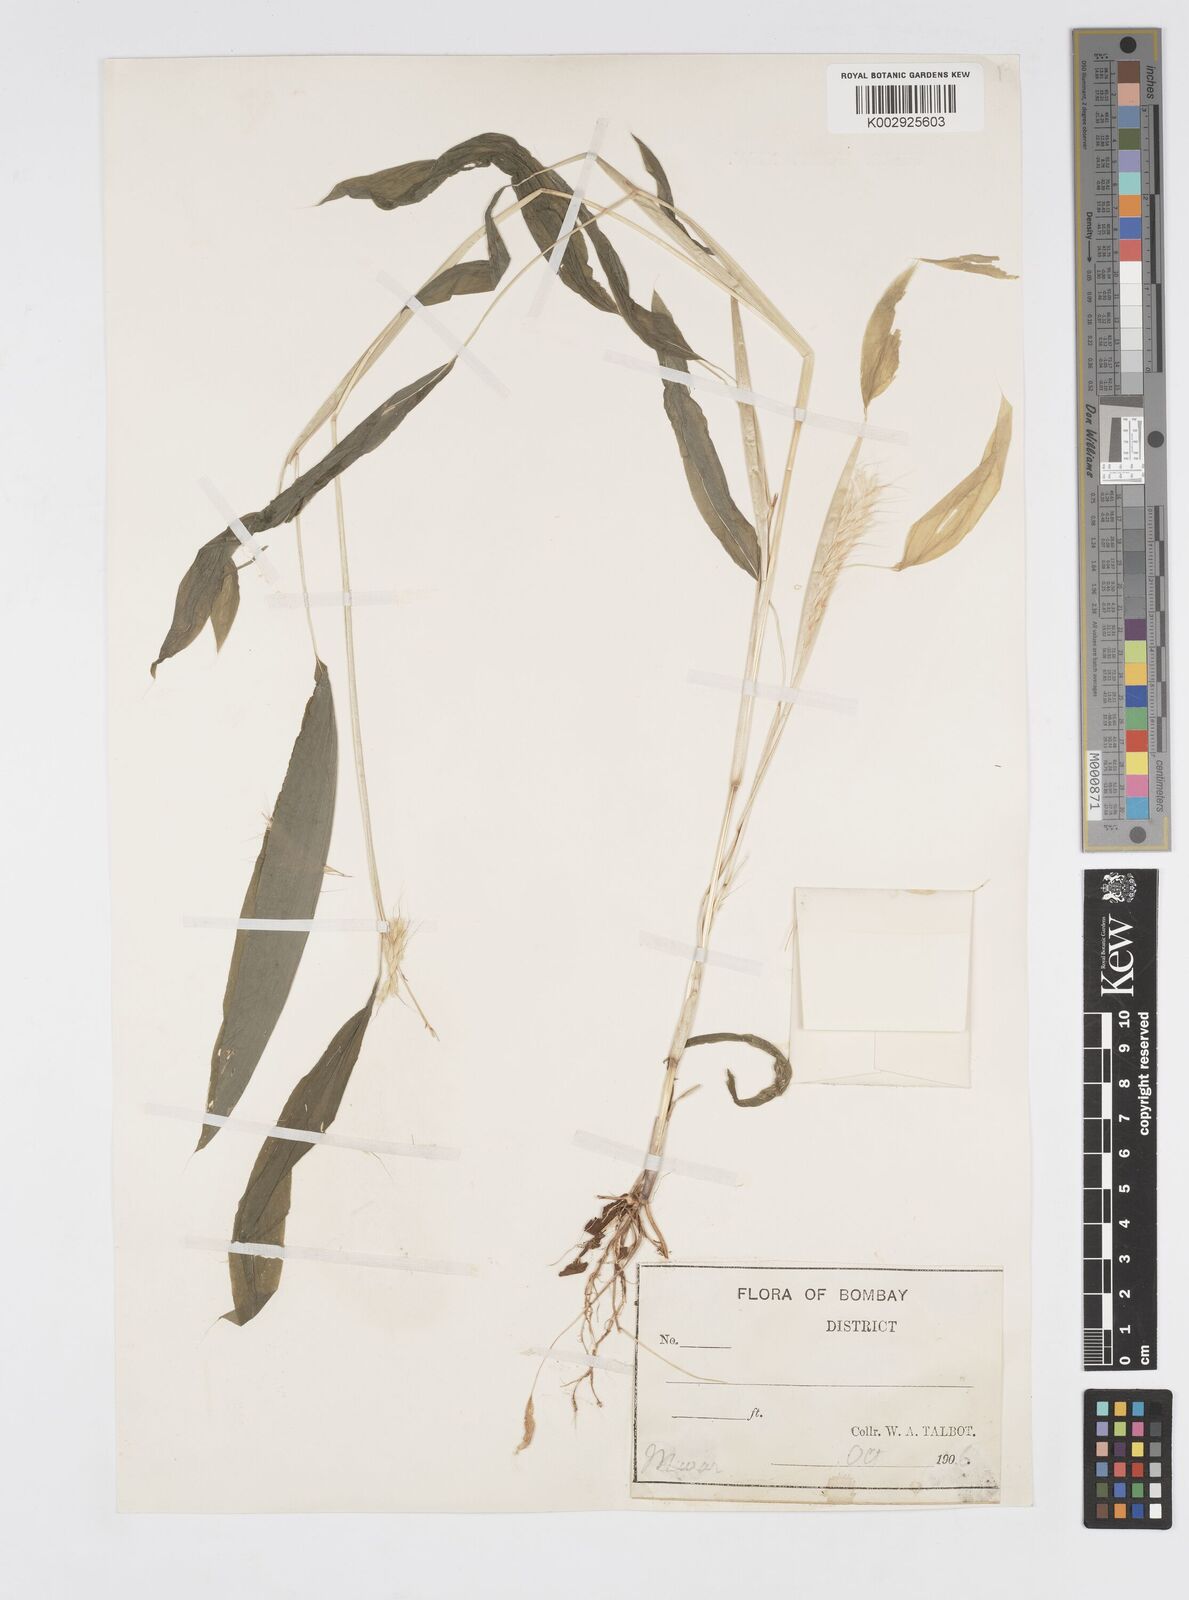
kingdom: Plantae
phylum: Tracheophyta
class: Liliopsida
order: Poales
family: Poaceae
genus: Spodiopogon
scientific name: Spodiopogon rhizophorus
